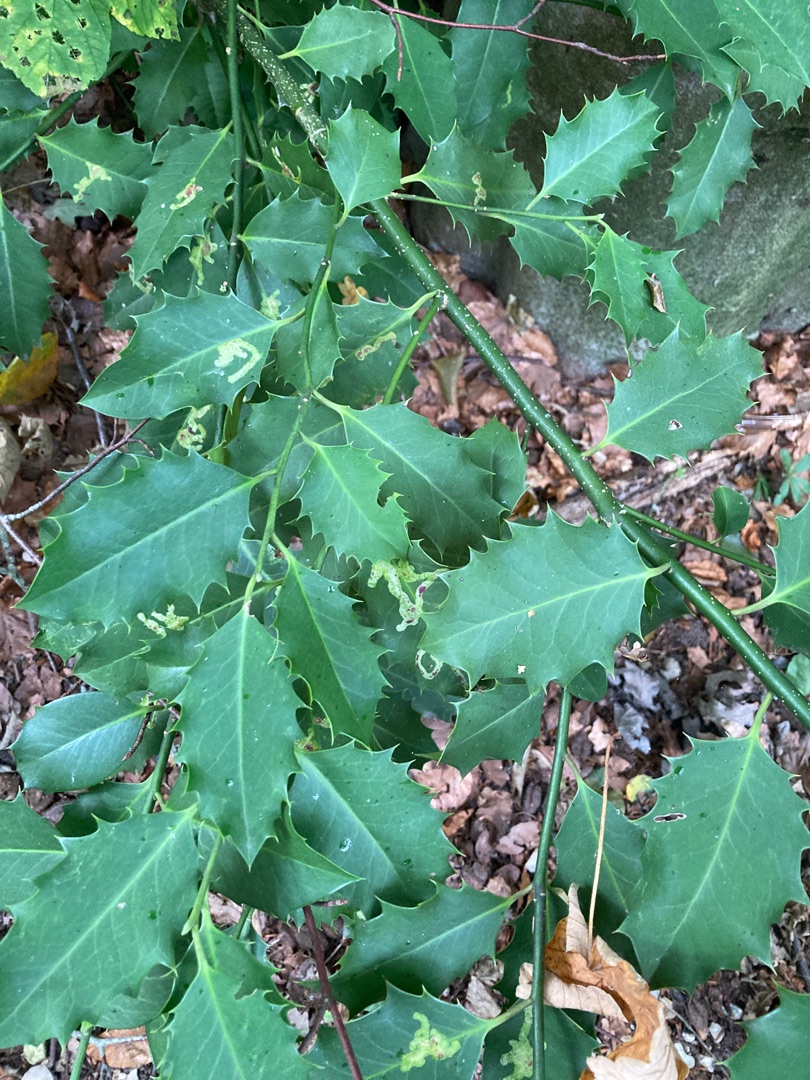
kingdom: Plantae
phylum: Tracheophyta
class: Magnoliopsida
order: Aquifoliales
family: Aquifoliaceae
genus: Ilex
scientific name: Ilex aquifolium
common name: Kristtorn
